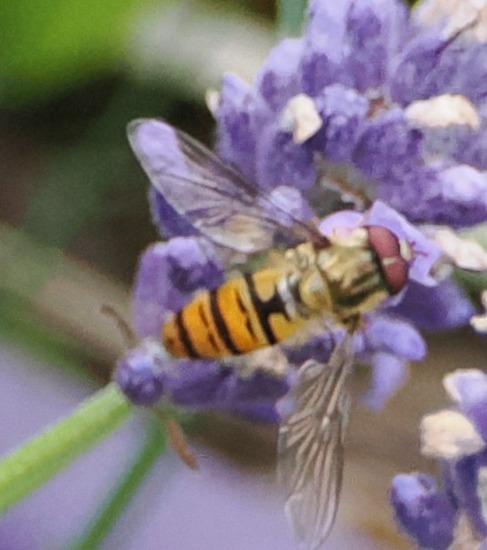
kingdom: Animalia
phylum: Arthropoda
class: Insecta
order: Diptera
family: Syrphidae
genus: Episyrphus
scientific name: Episyrphus balteatus
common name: Dobbeltbåndet svirreflue
